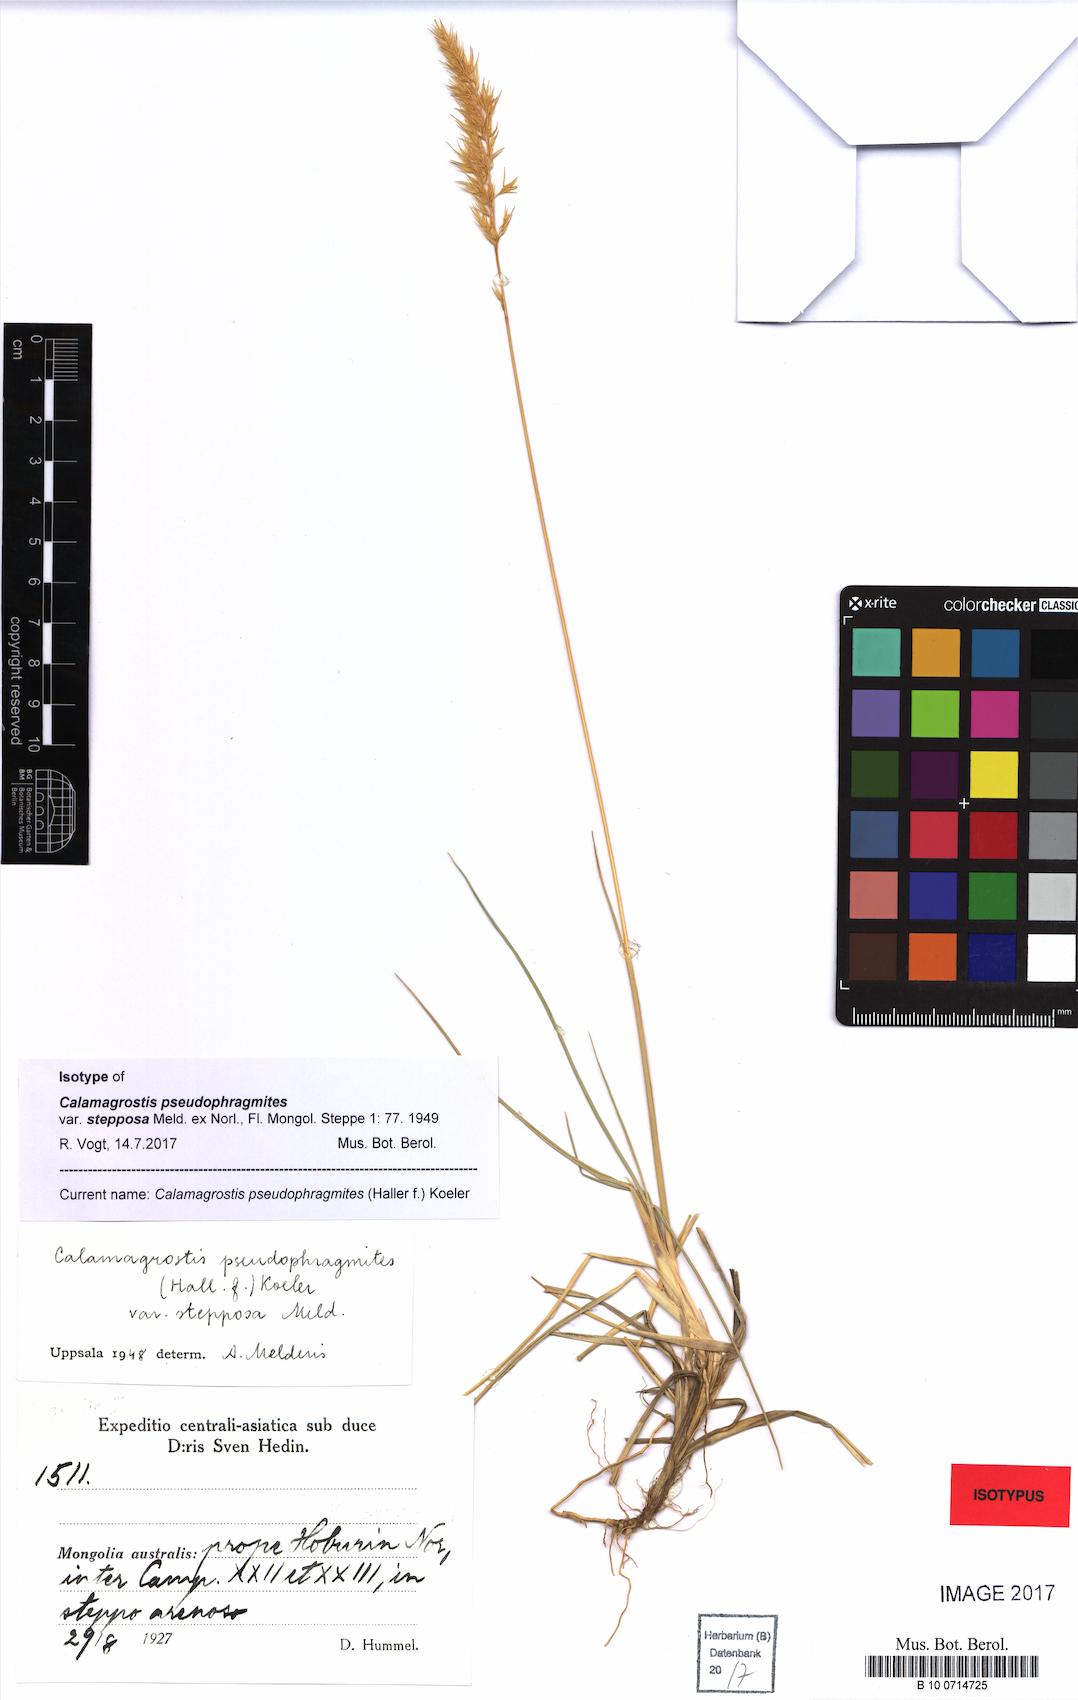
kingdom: Plantae
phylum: Tracheophyta
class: Liliopsida
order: Poales
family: Poaceae
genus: Calamagrostis
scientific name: Calamagrostis pseudophragmites
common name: Coastal small-reed
